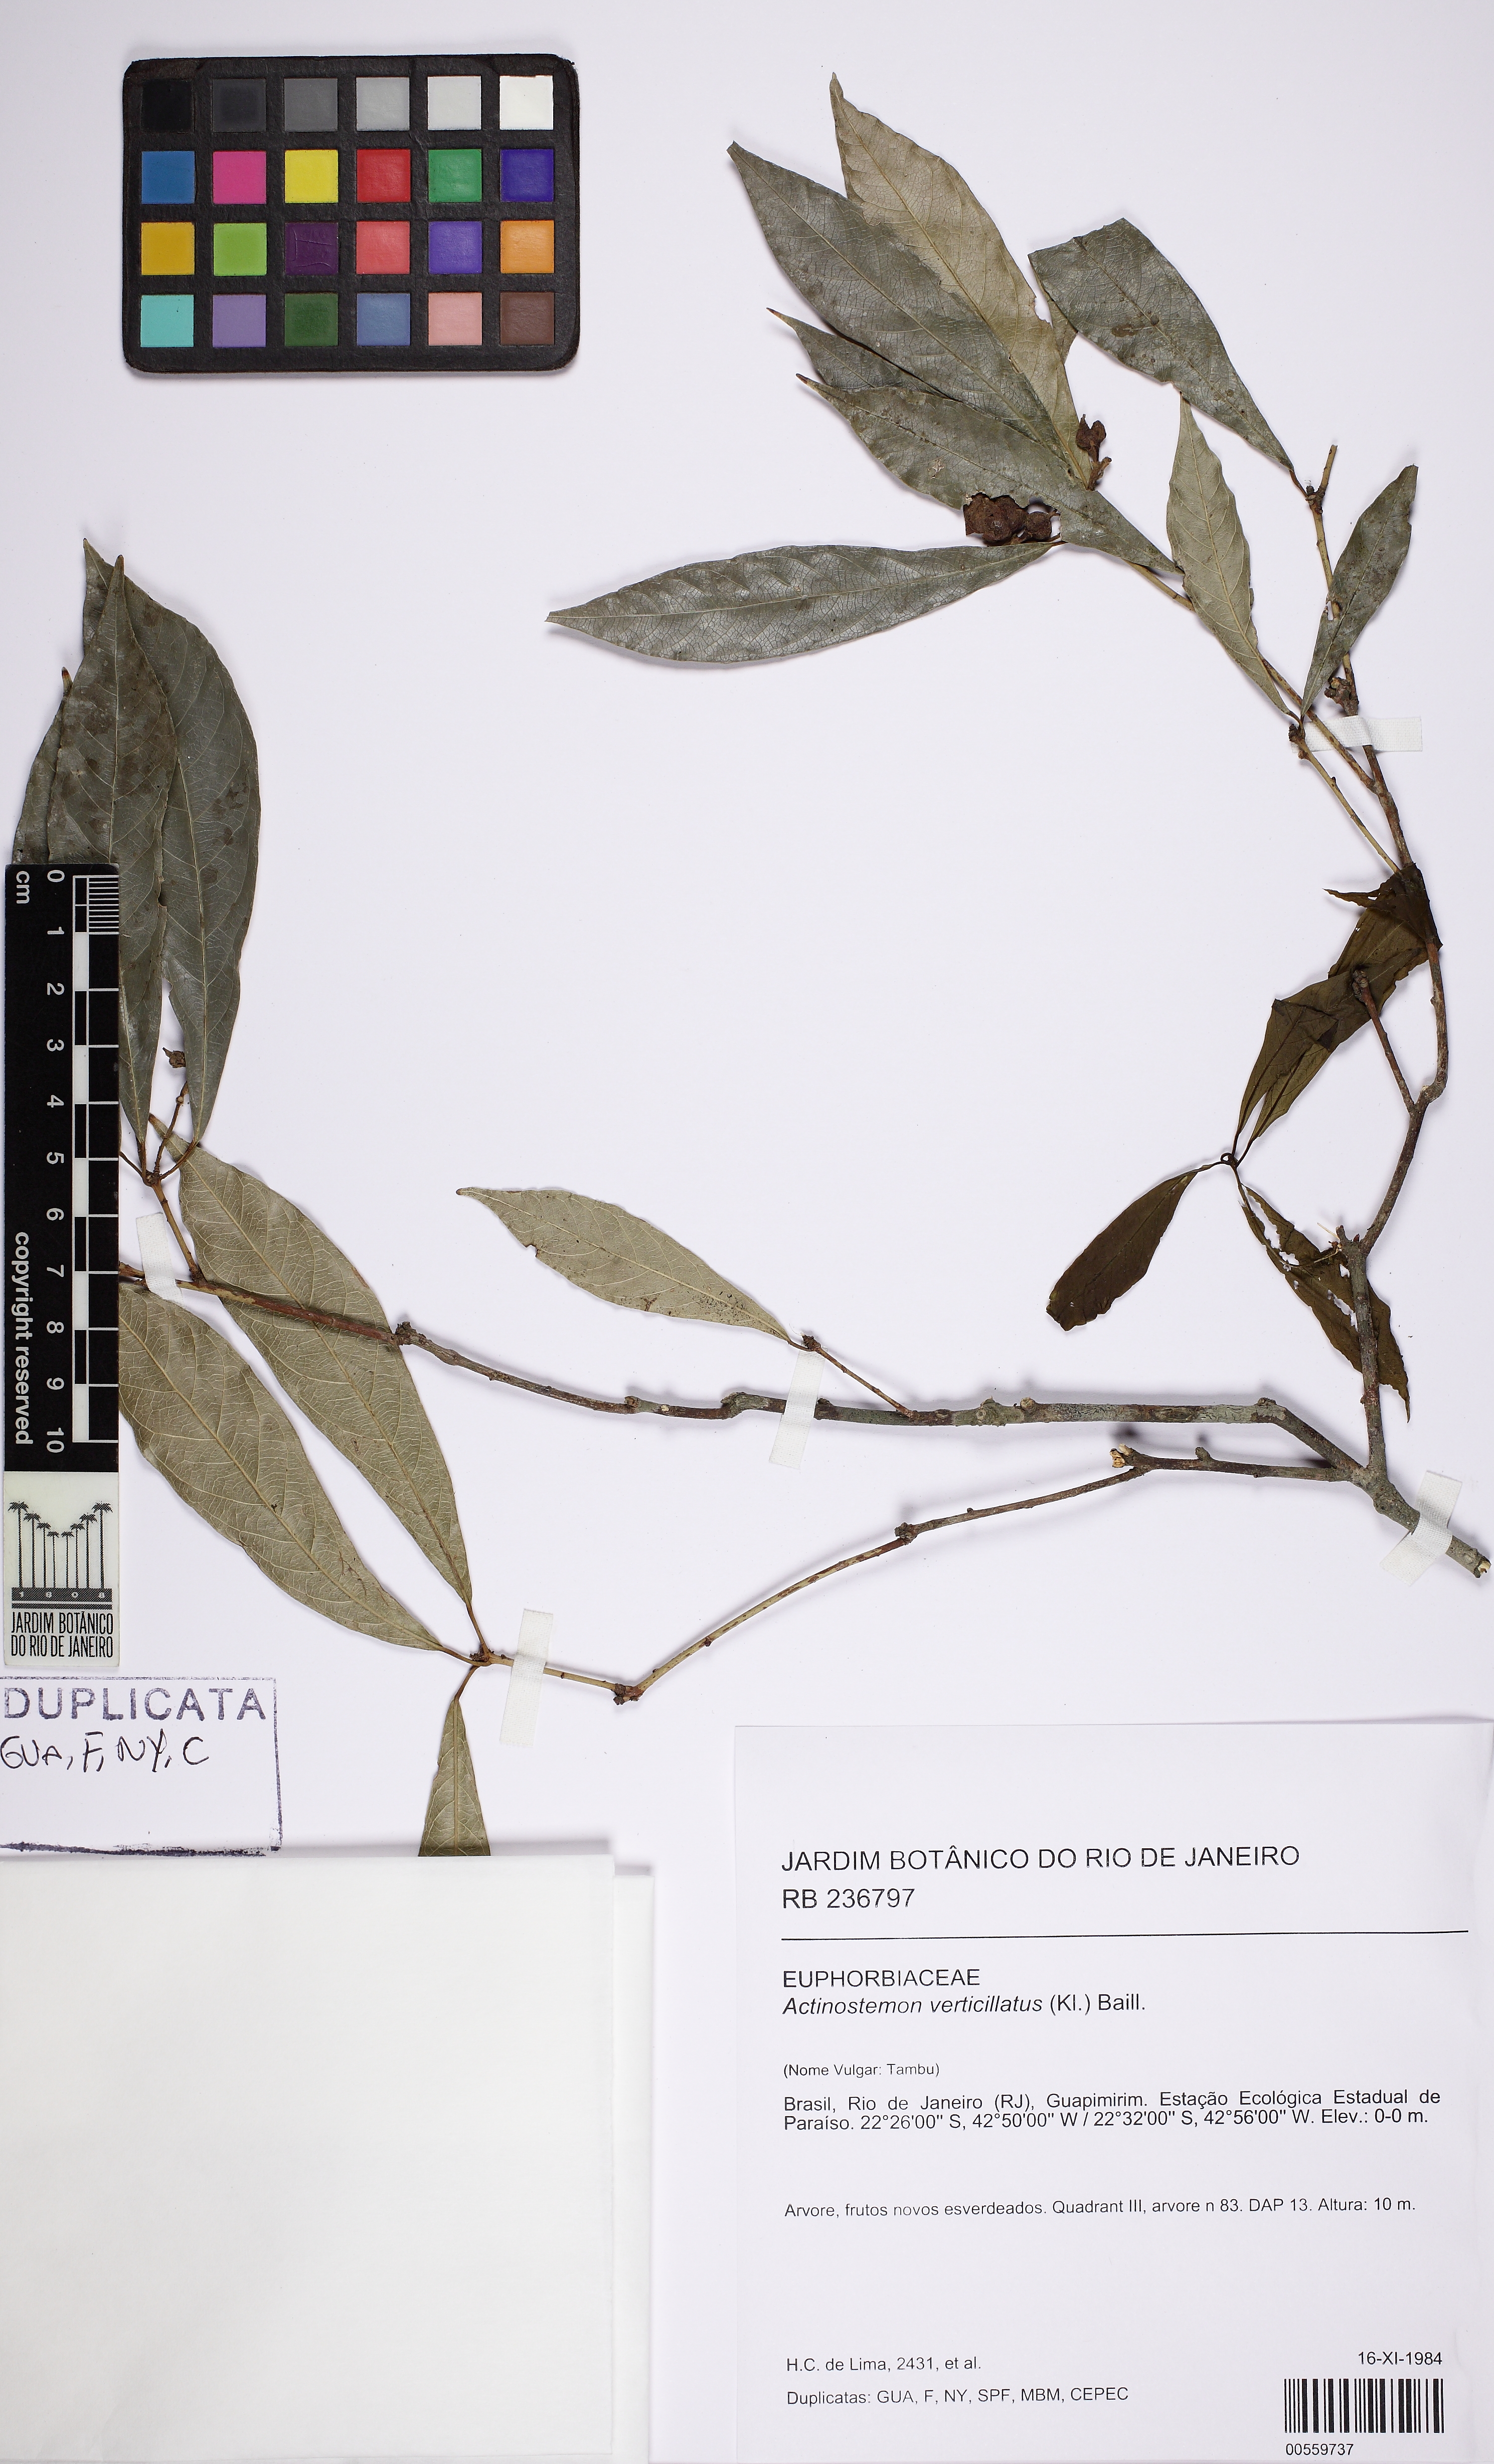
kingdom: Plantae
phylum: Tracheophyta
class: Magnoliopsida
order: Malpighiales
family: Euphorbiaceae
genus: Actinostemon
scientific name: Actinostemon verticillatus
